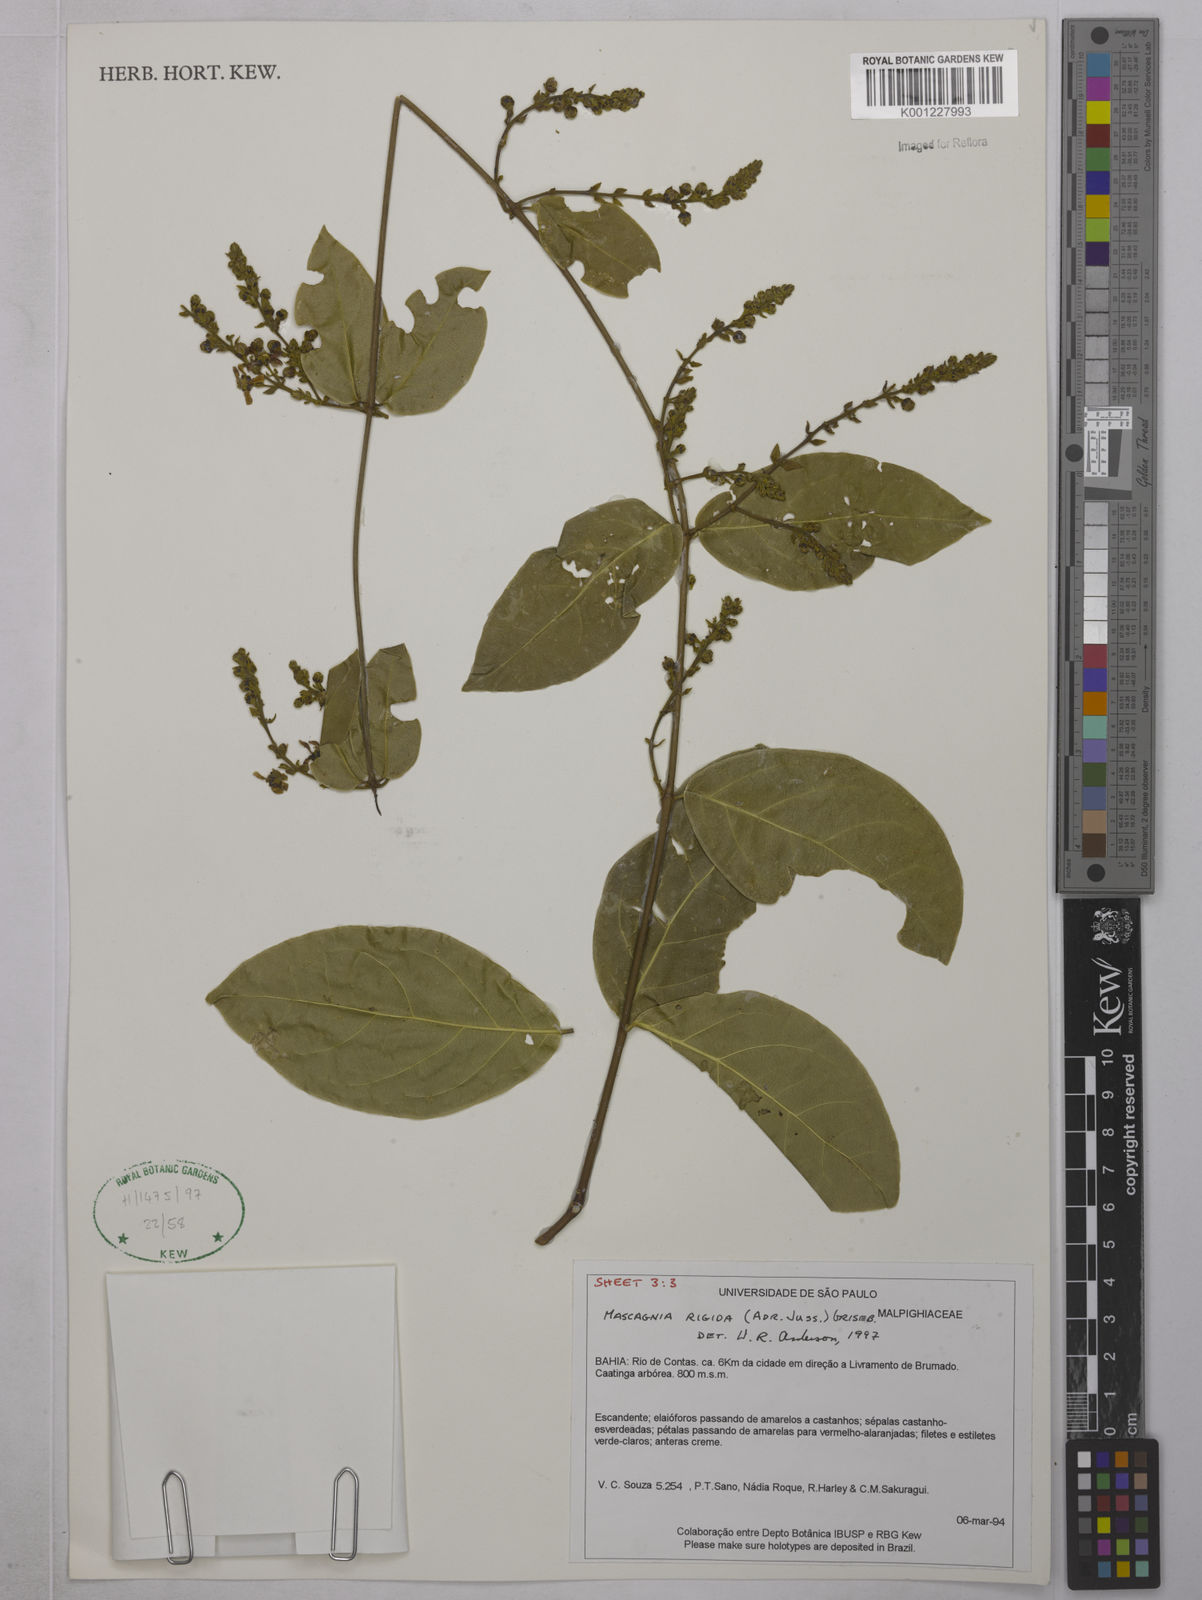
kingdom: Plantae
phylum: Tracheophyta
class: Magnoliopsida
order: Malpighiales
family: Malpighiaceae
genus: Amorimia
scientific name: Amorimia rigida
